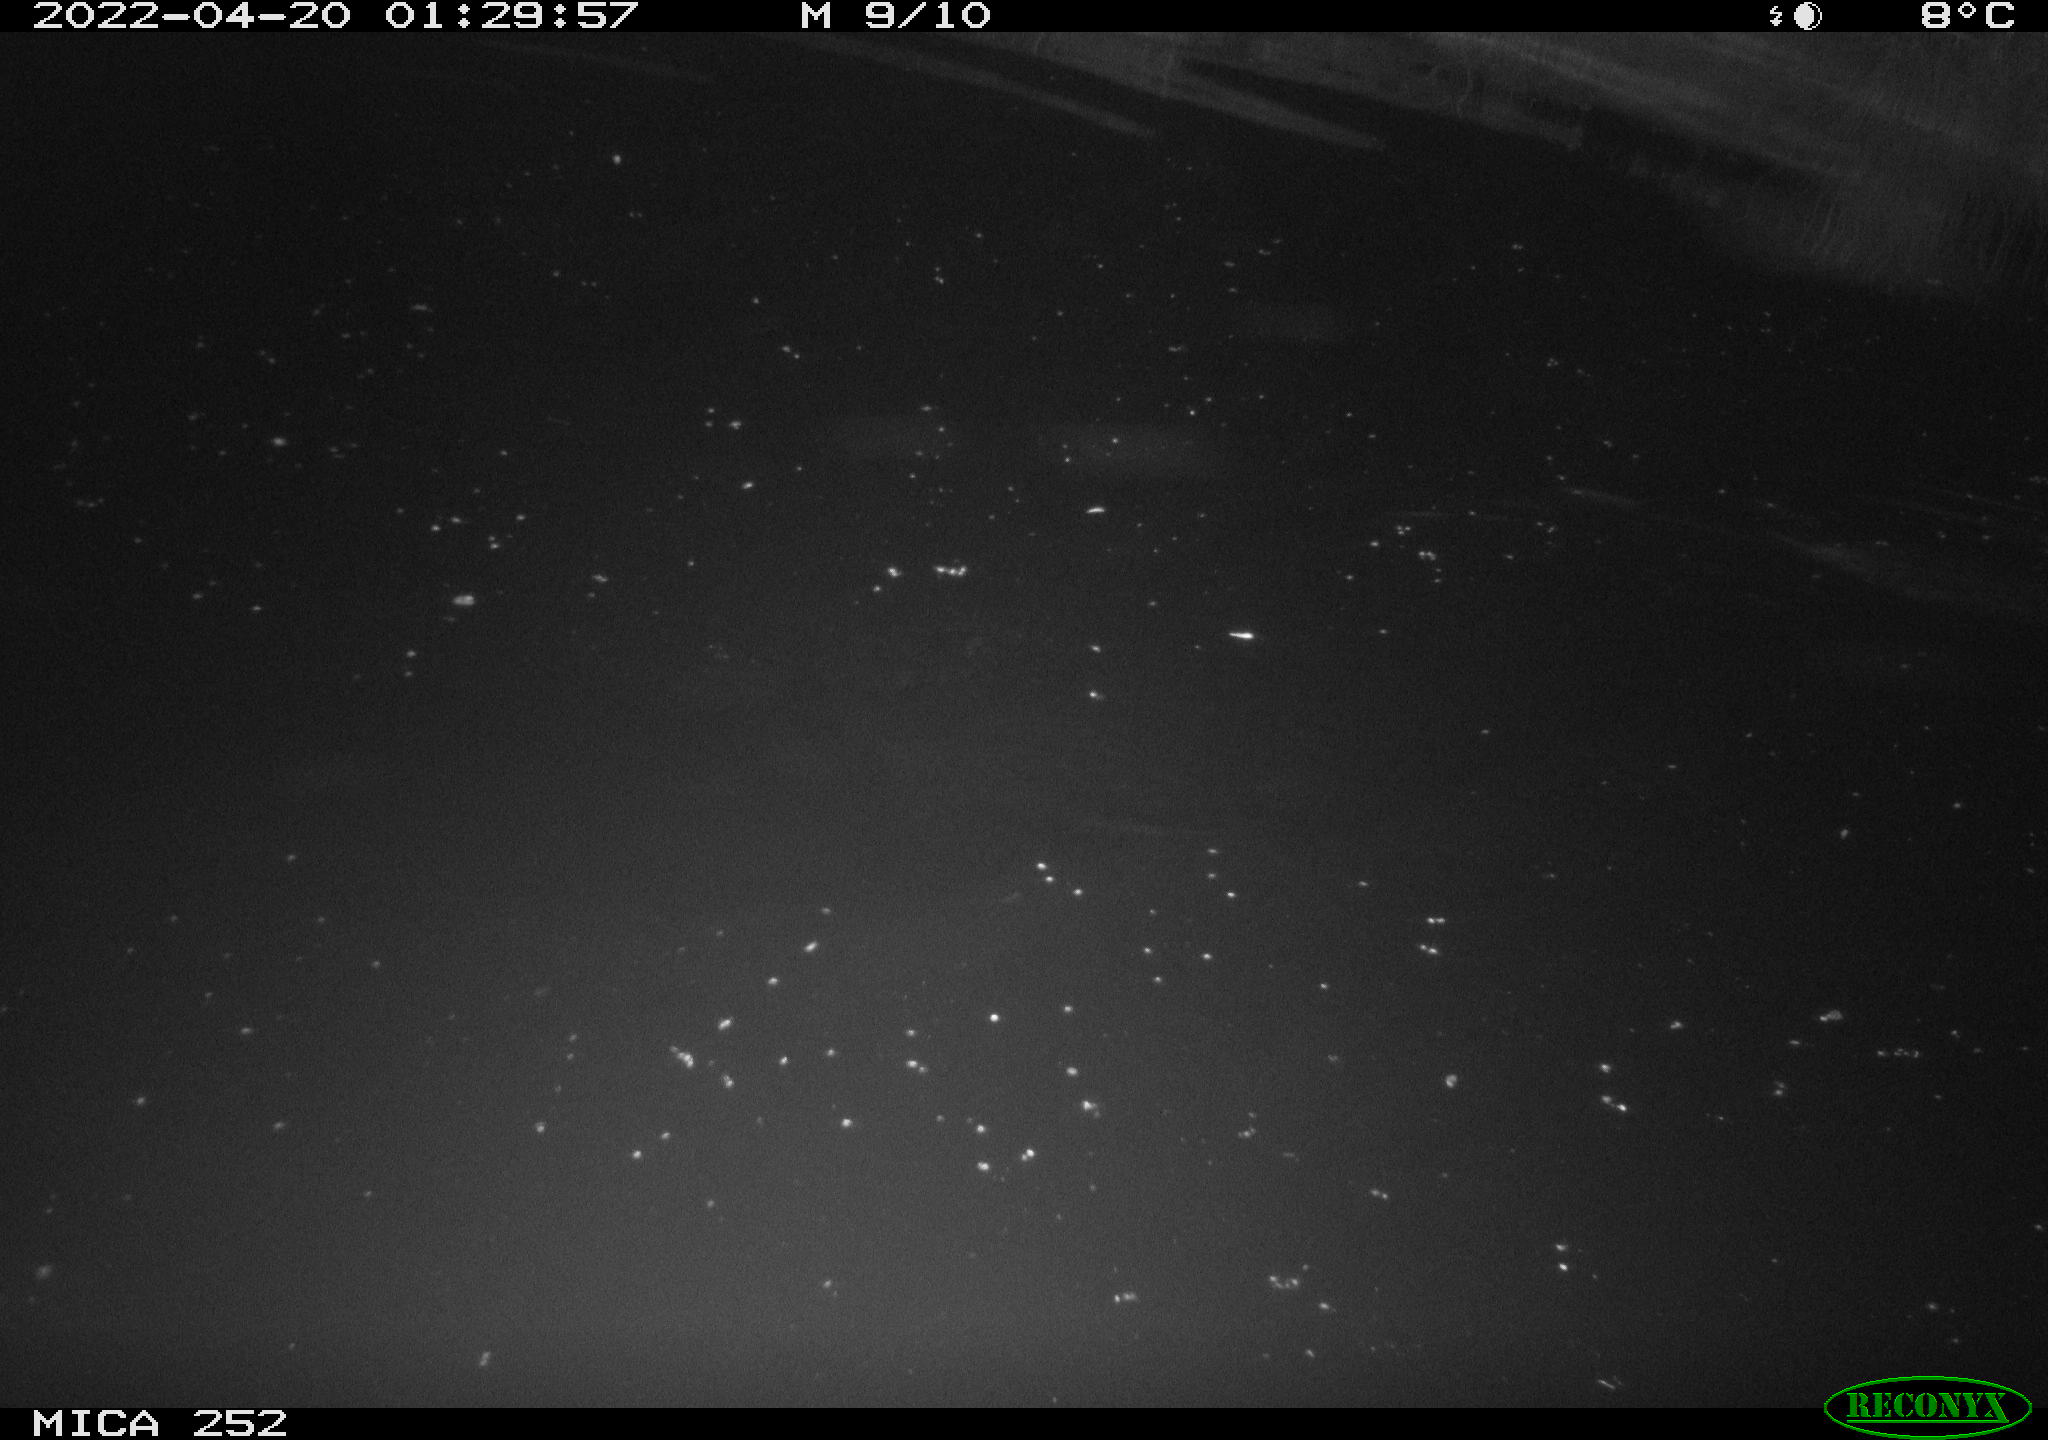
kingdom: Animalia
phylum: Chordata
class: Mammalia
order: Rodentia
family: Castoridae
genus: Castor
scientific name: Castor fiber
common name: Eurasian beaver
